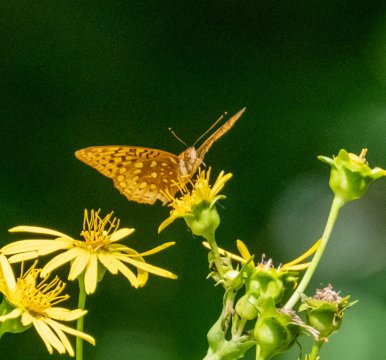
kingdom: Animalia
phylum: Arthropoda
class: Insecta
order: Lepidoptera
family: Nymphalidae
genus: Speyeria
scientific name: Speyeria cybele
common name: Great Spangled Fritillary
